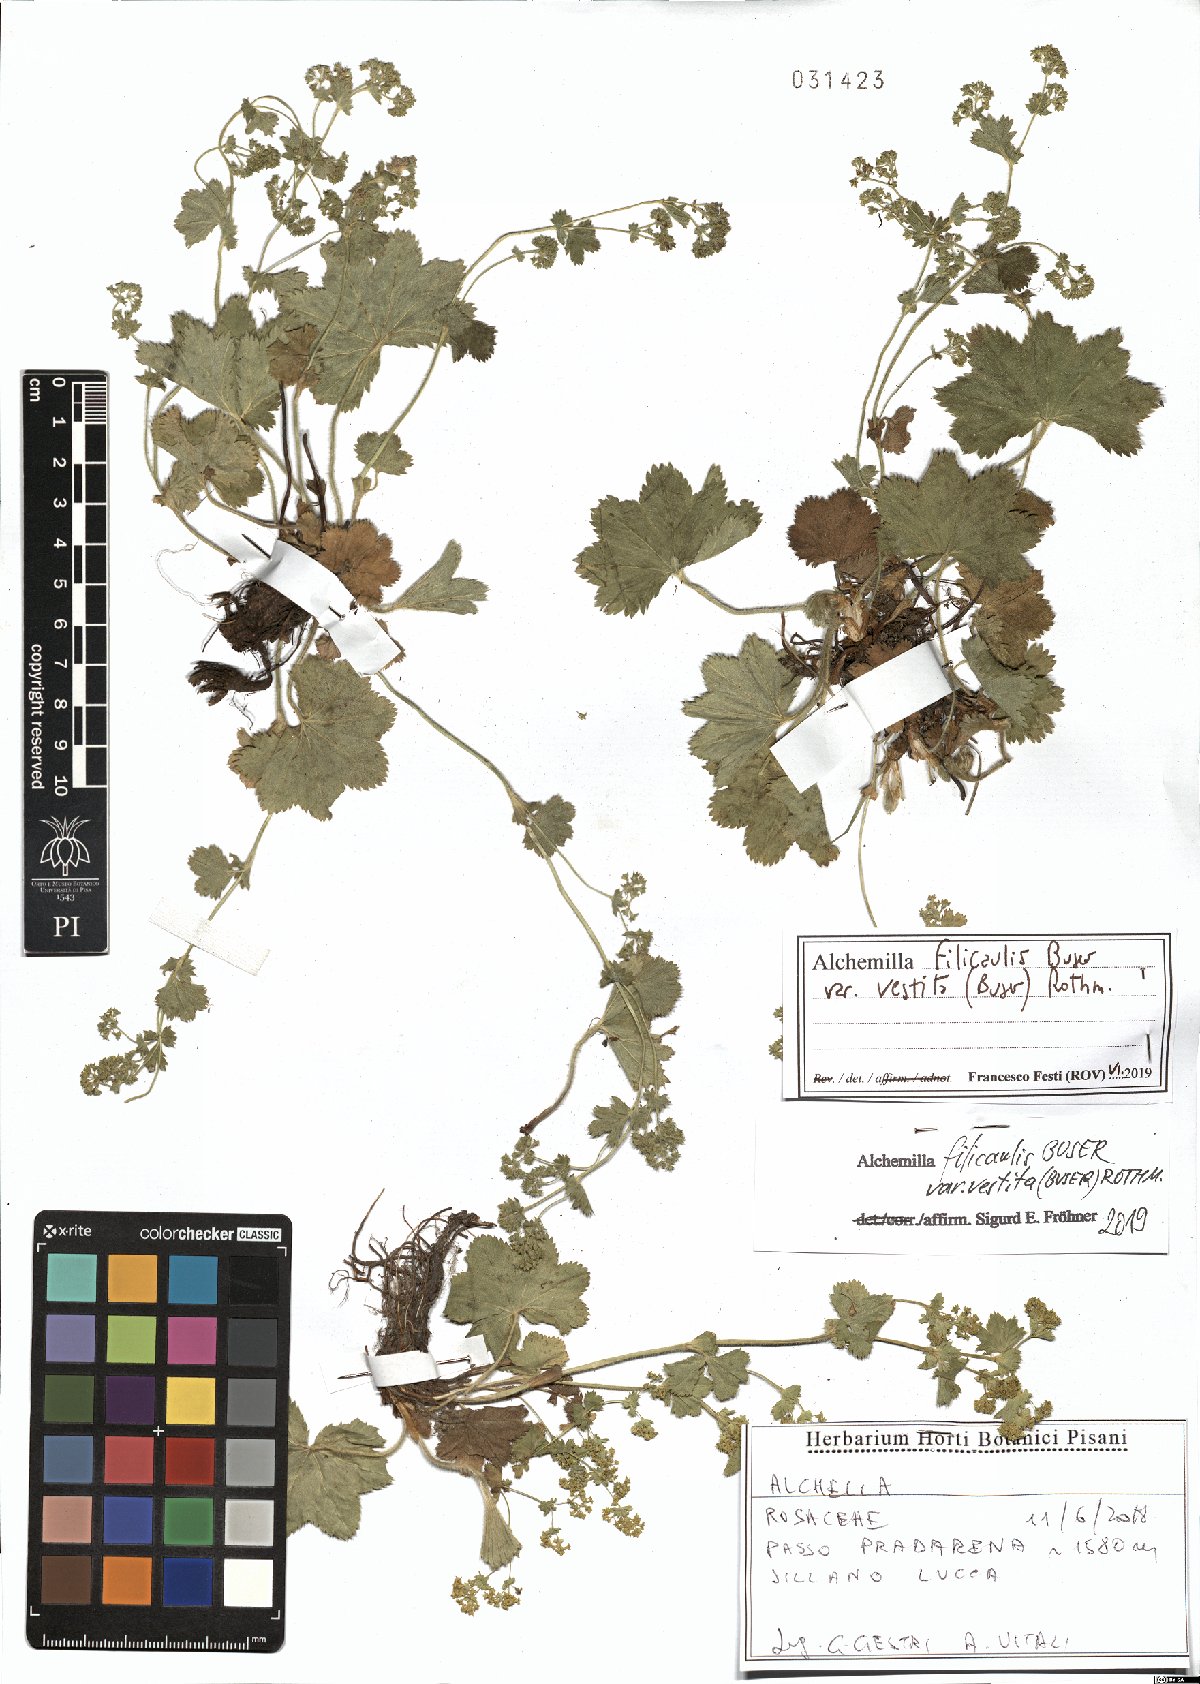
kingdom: Plantae
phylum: Tracheophyta
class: Magnoliopsida
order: Rosales
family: Rosaceae
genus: Alchemilla
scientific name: Alchemilla filicaulis
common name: Hairy lady's-mantle
